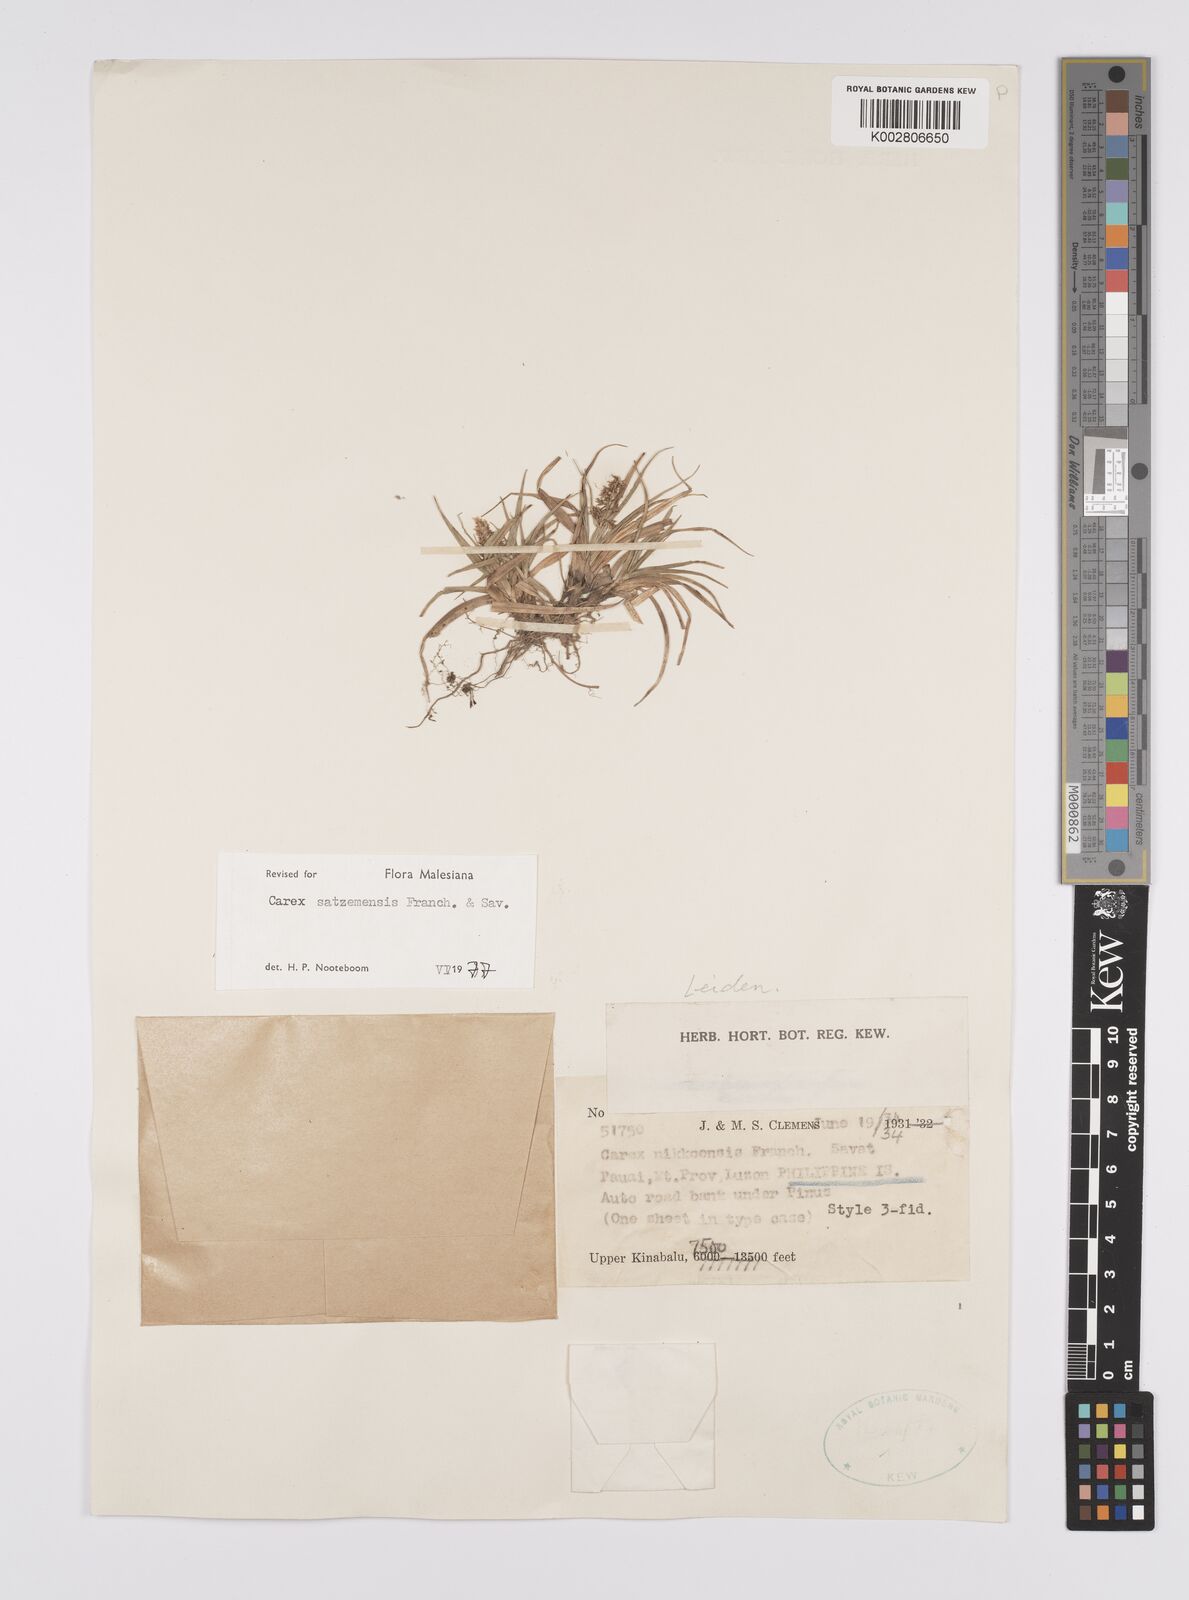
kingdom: Plantae
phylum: Tracheophyta
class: Liliopsida
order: Poales
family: Cyperaceae
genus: Carex
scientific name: Carex satsumensis
